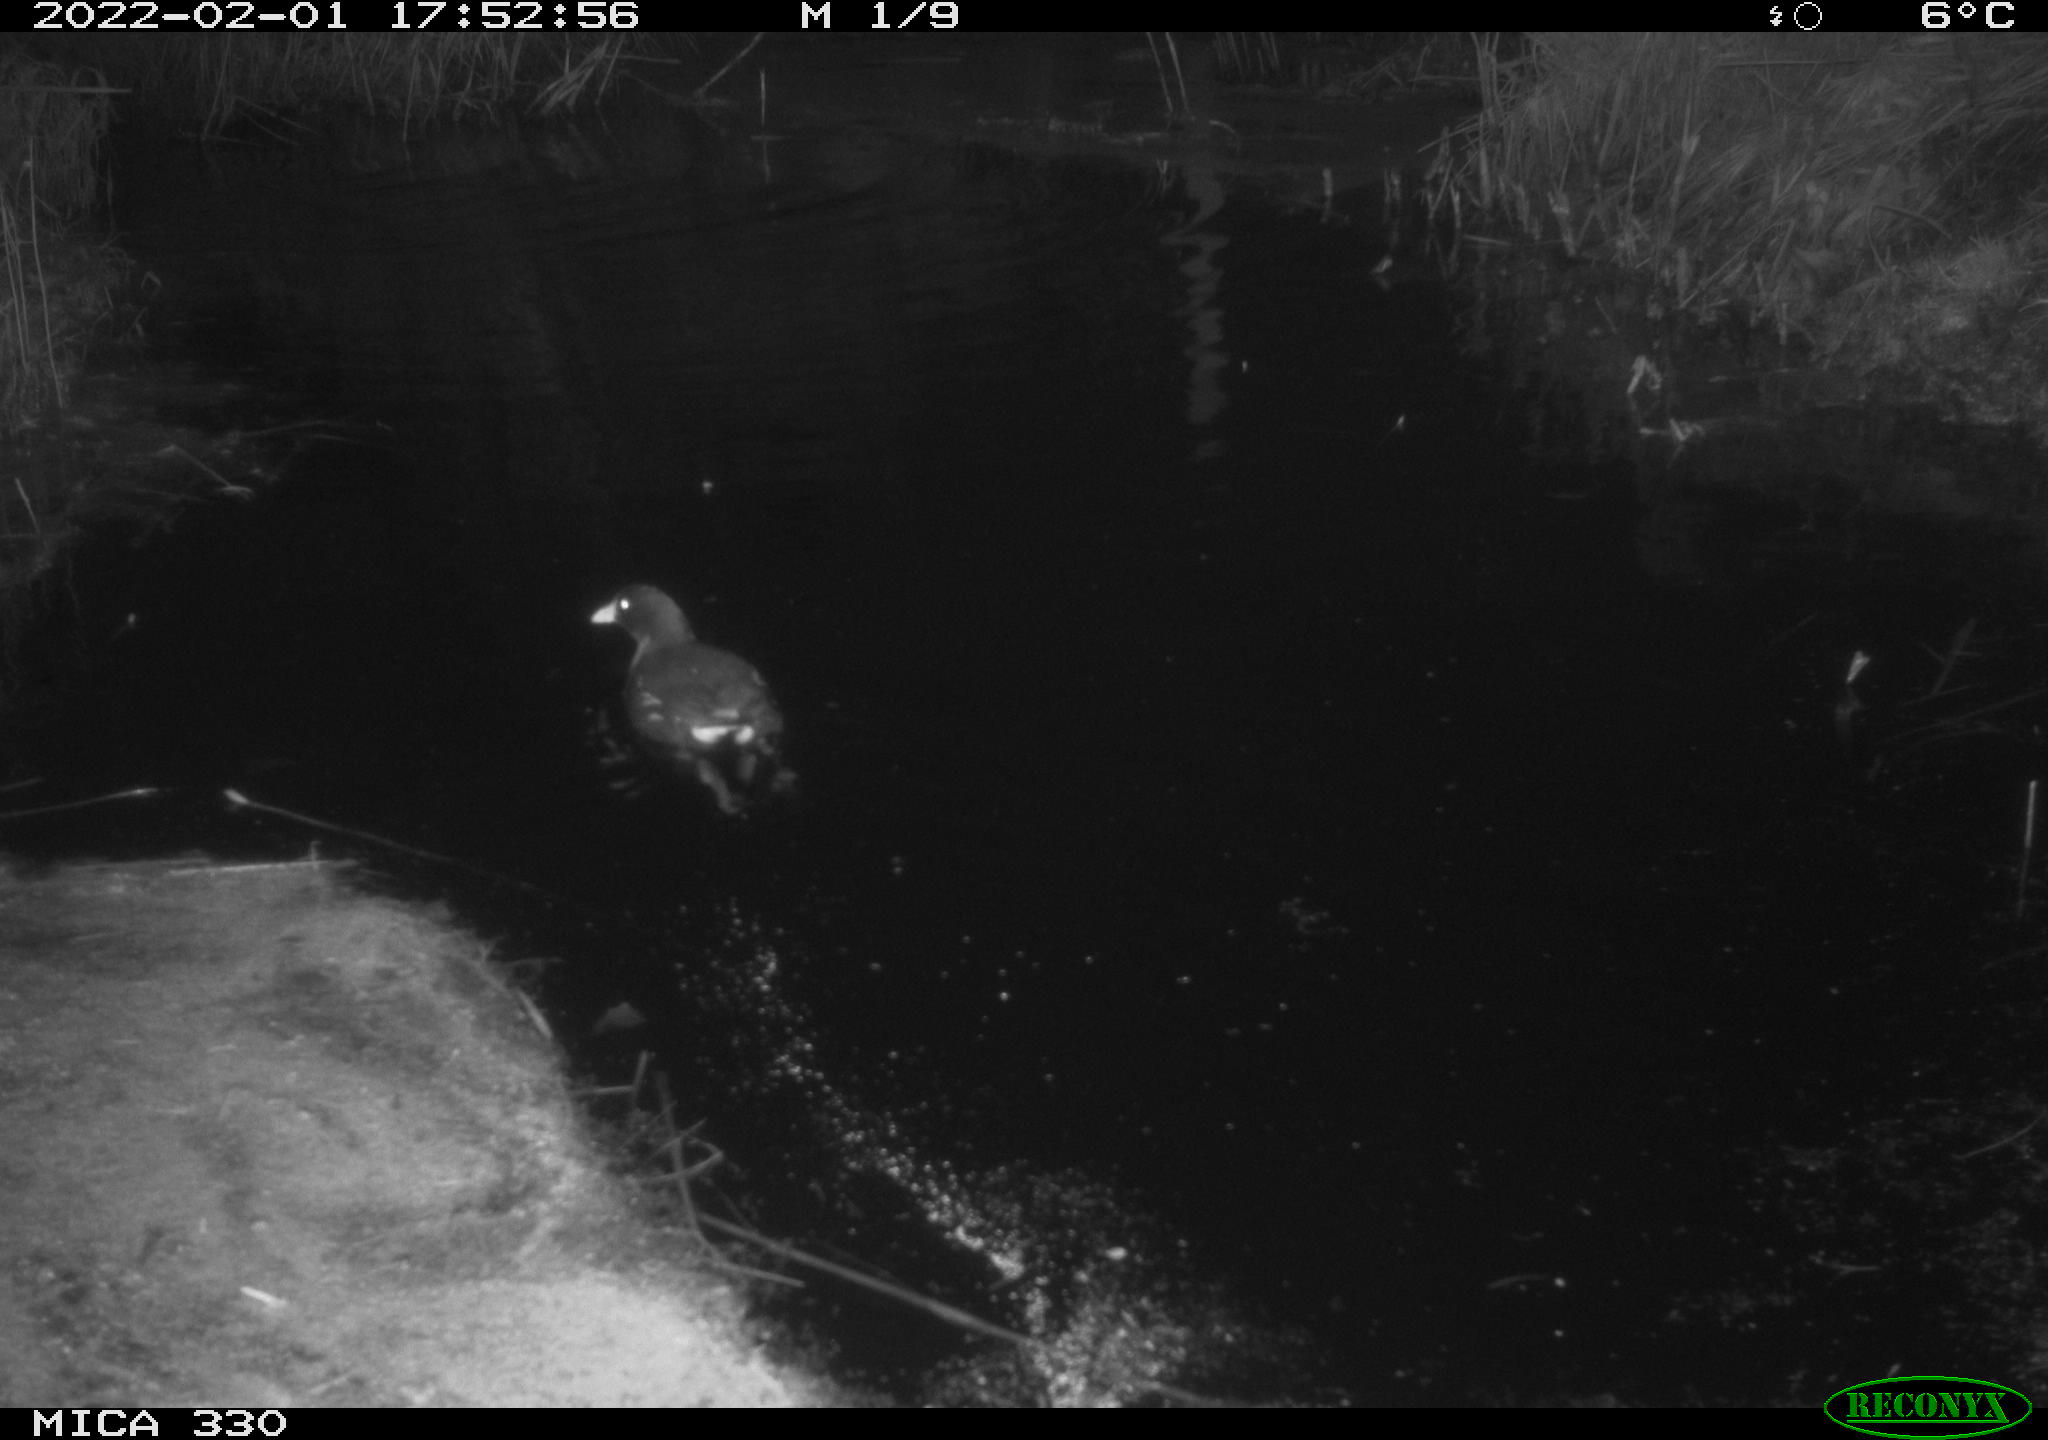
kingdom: Animalia
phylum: Chordata
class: Aves
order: Gruiformes
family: Rallidae
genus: Gallinula
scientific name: Gallinula chloropus
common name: Common moorhen
